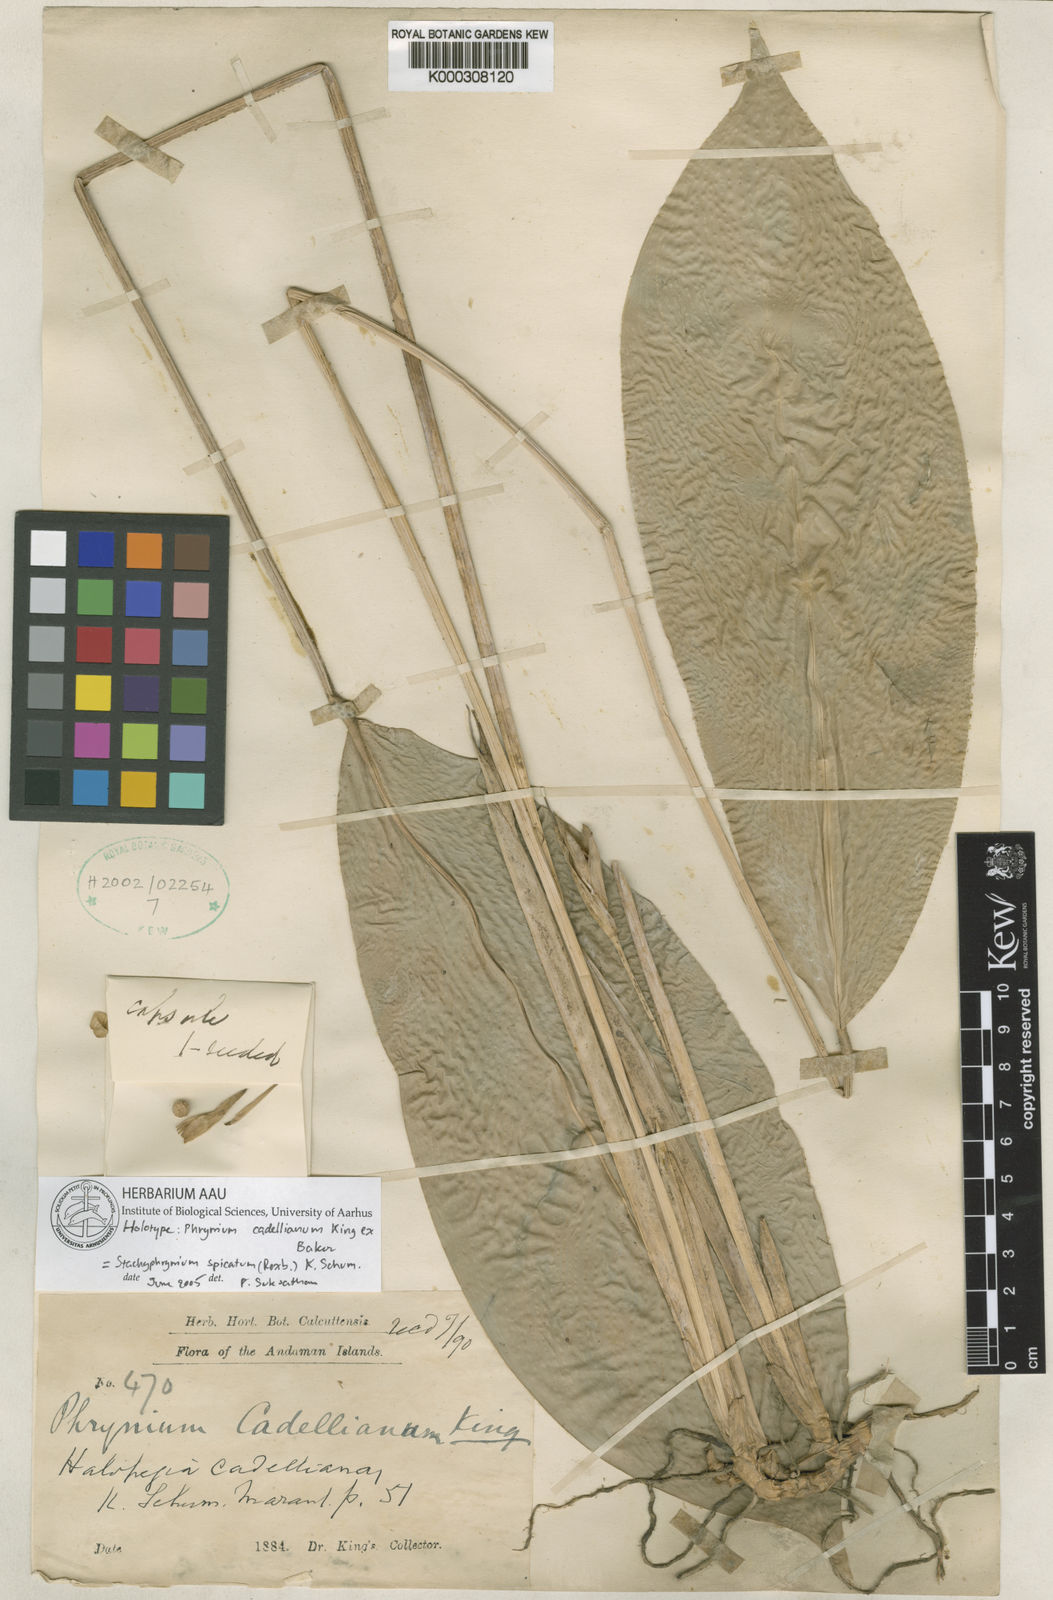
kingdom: Plantae
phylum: Tracheophyta
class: Liliopsida
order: Zingiberales
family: Marantaceae
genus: Stachyphrynium
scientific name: Stachyphrynium spicatum
